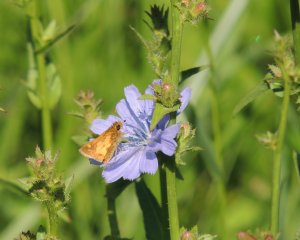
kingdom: Animalia
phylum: Arthropoda
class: Insecta
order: Lepidoptera
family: Hesperiidae
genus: Polites
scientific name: Polites coras
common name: Peck's Skipper
